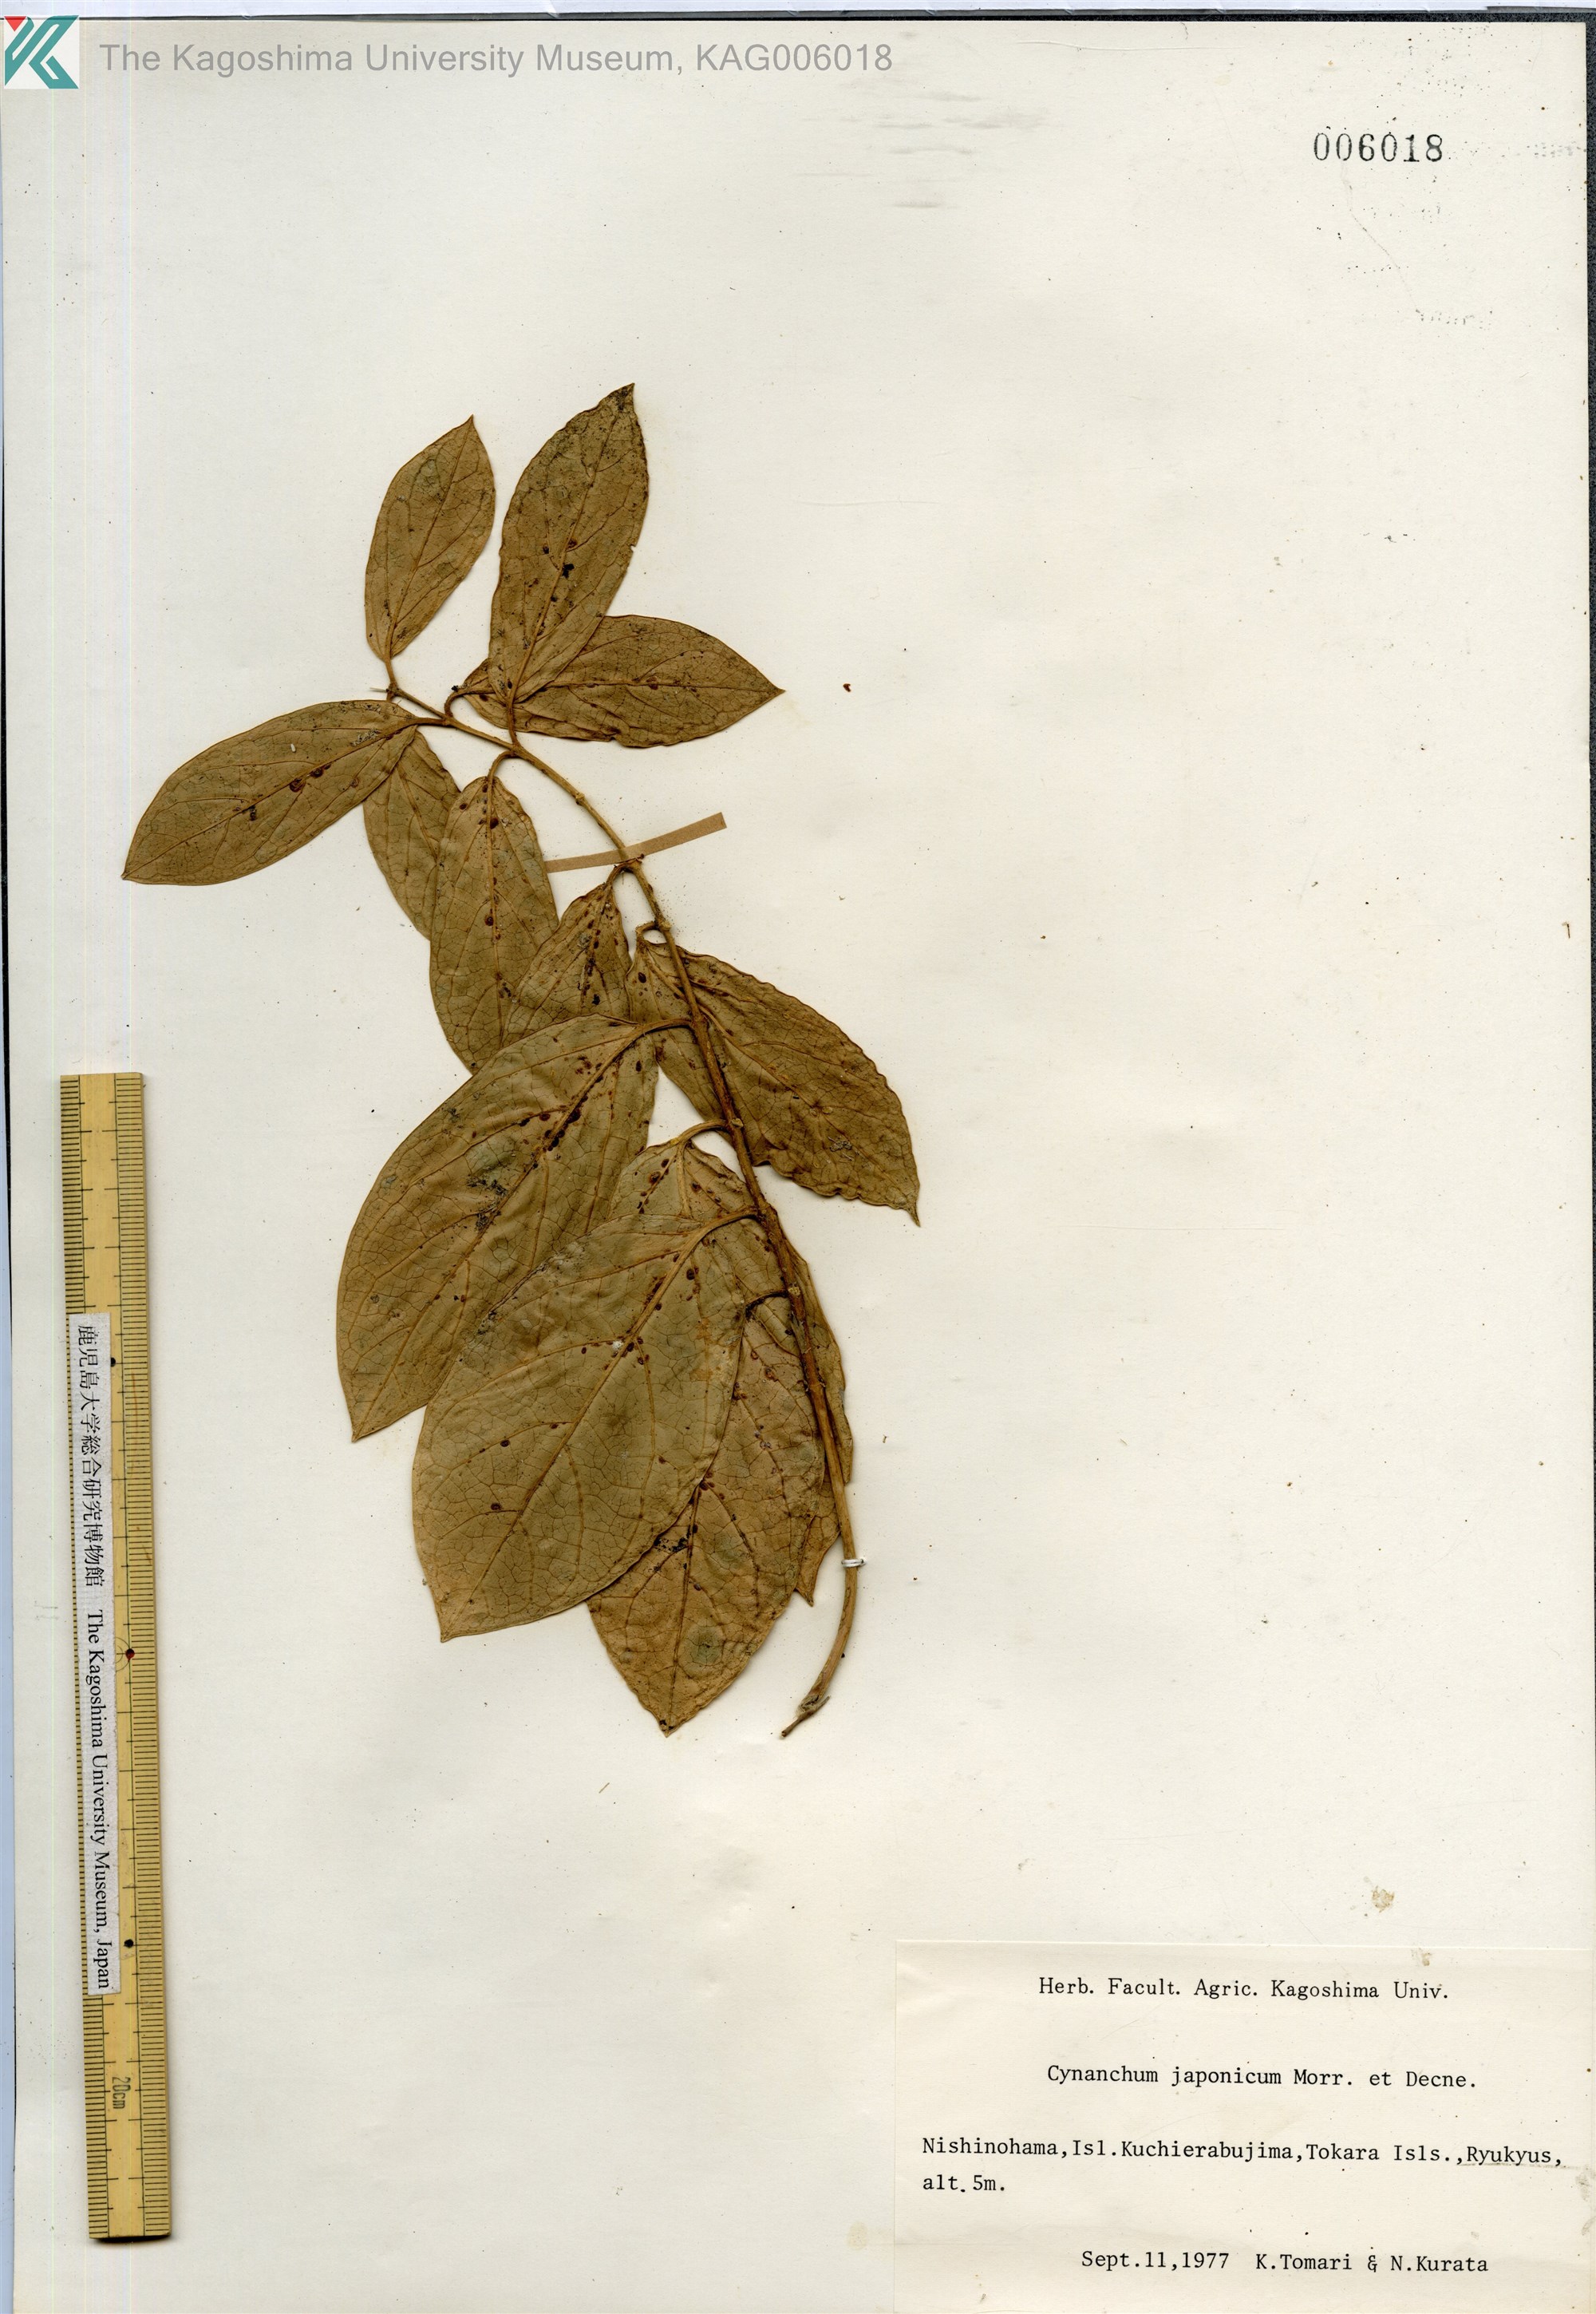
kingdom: Plantae
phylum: Tracheophyta
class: Magnoliopsida
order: Gentianales
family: Apocynaceae
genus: Vincetoxicum
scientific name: Vincetoxicum japonicum
